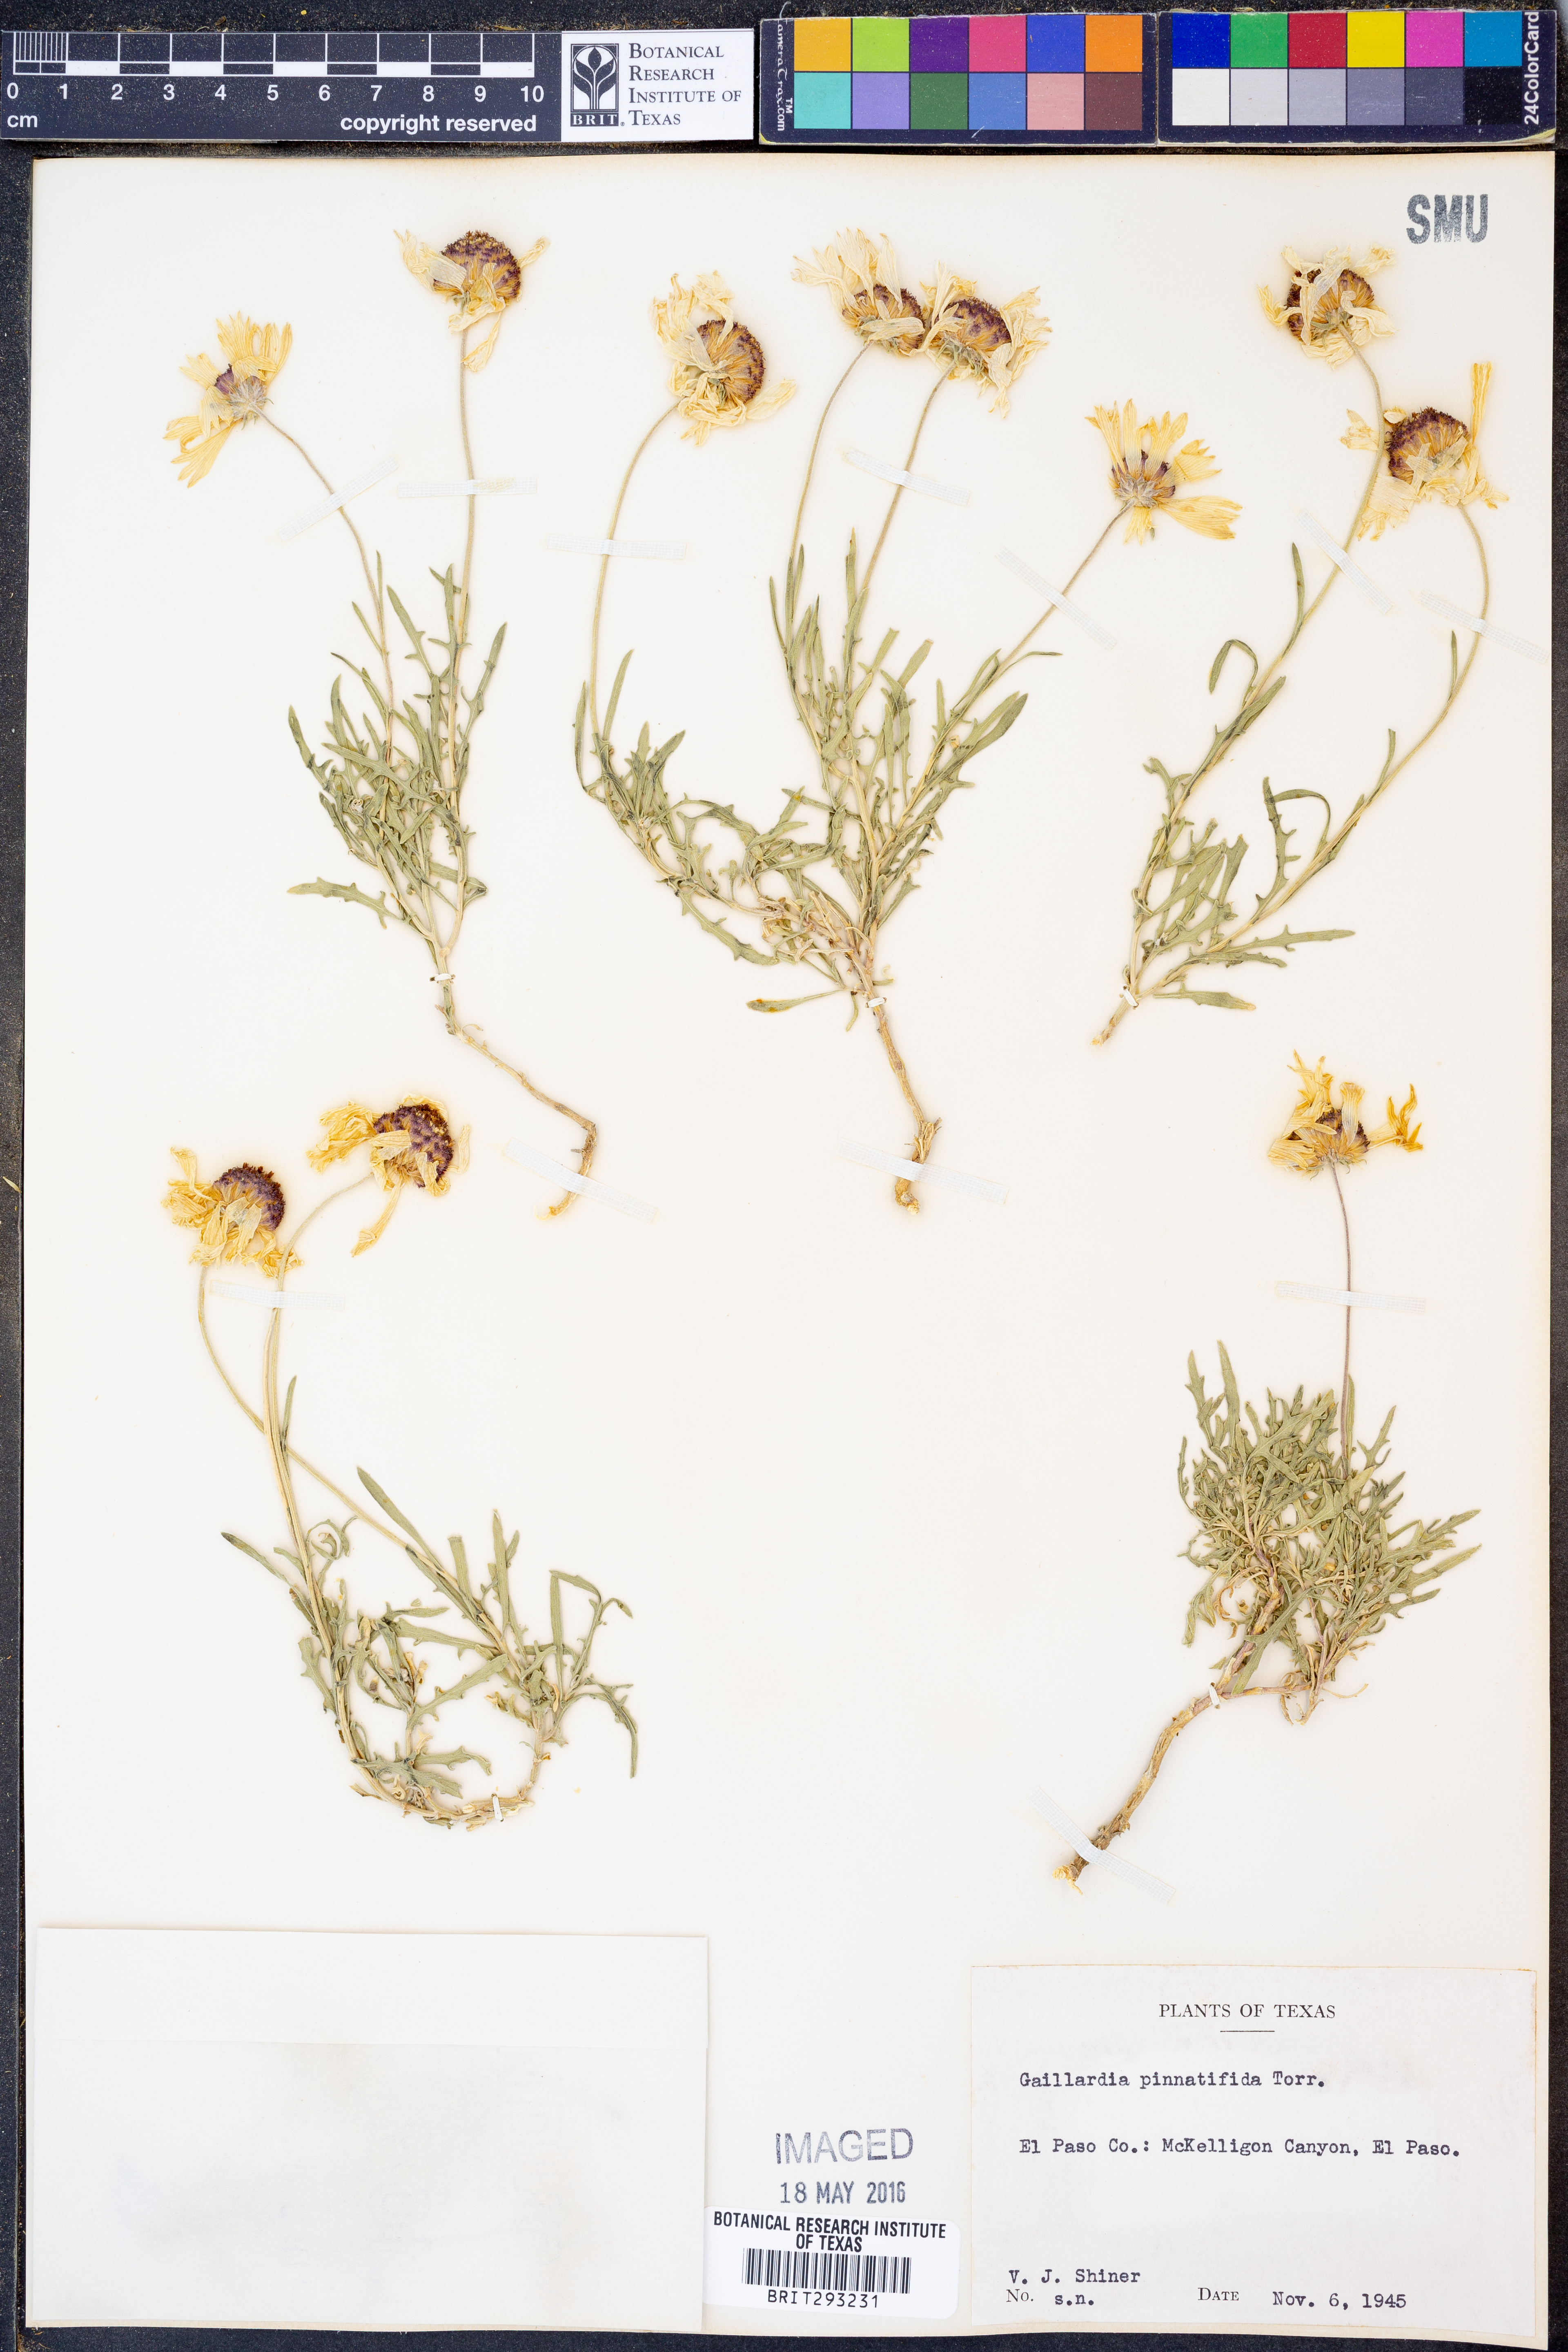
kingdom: Plantae
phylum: Tracheophyta
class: Magnoliopsida
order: Asterales
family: Asteraceae
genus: Gaillardia
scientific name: Gaillardia pinnatifida
